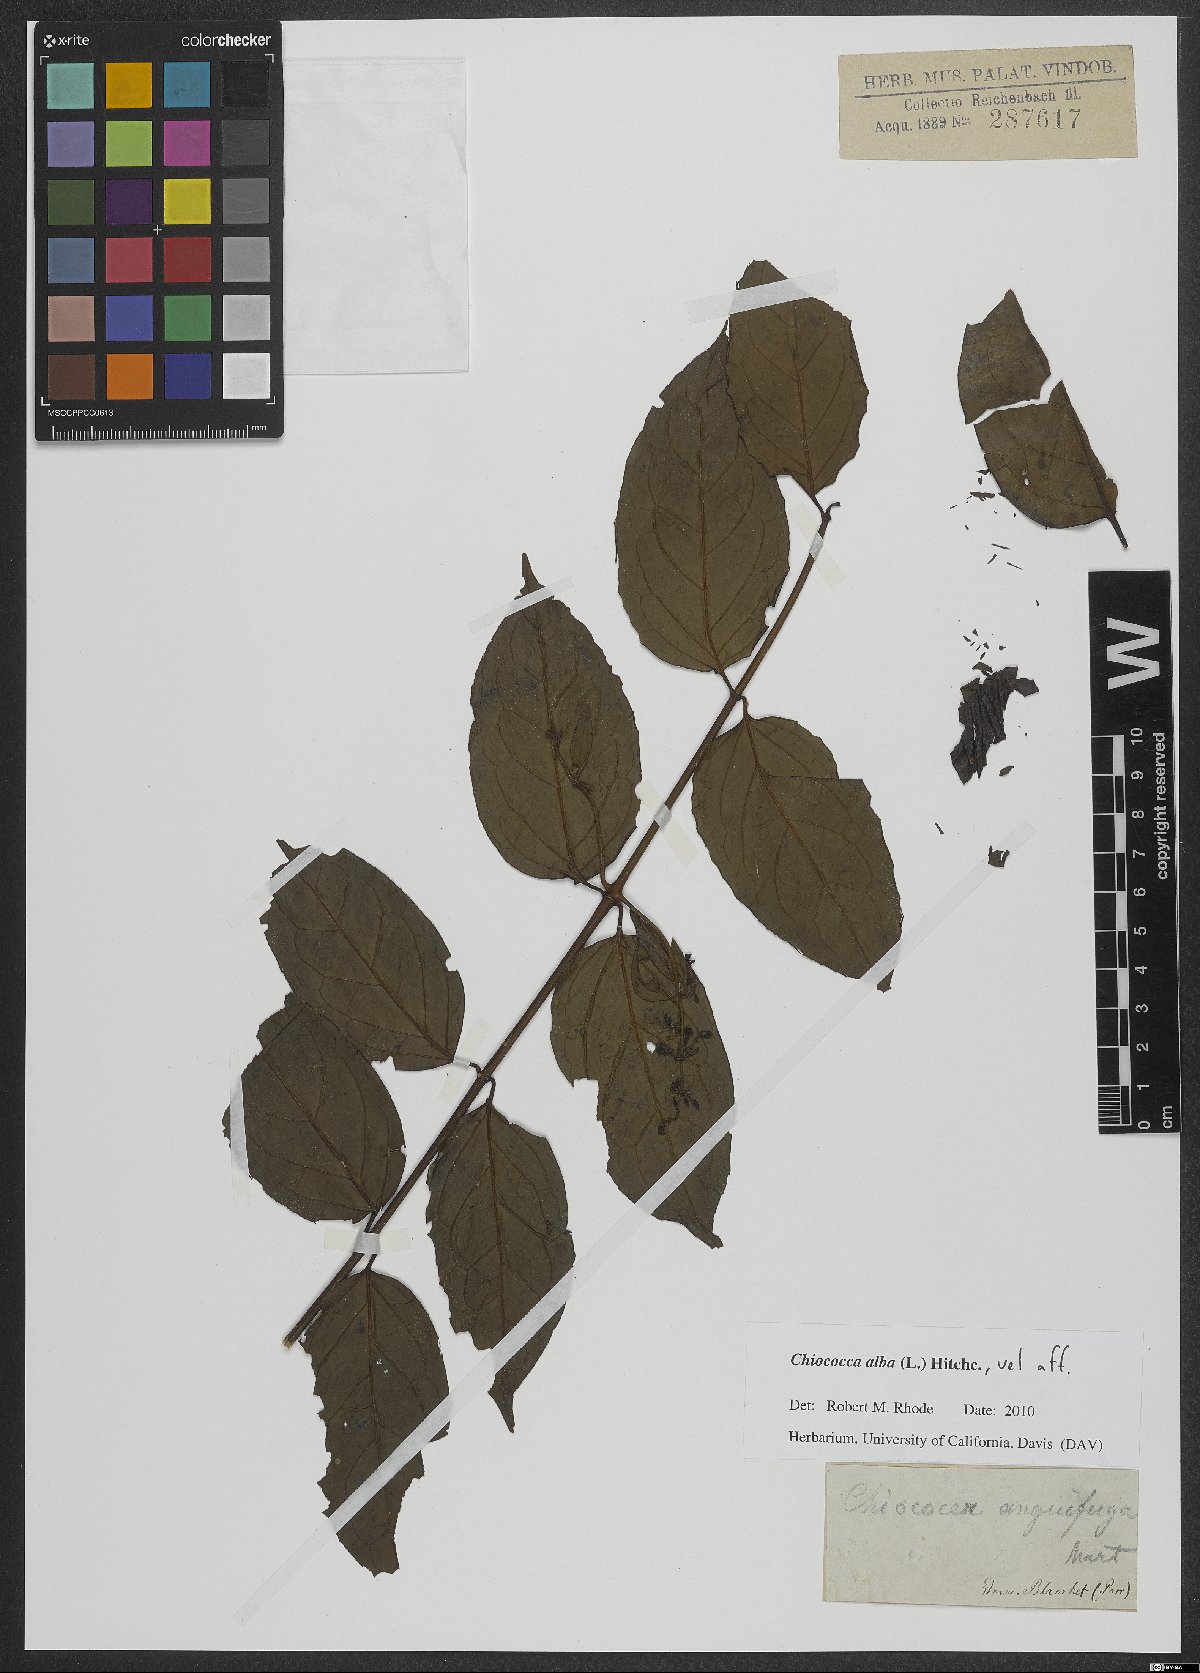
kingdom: Plantae
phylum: Tracheophyta
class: Magnoliopsida
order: Gentianales
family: Rubiaceae
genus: Chiococca
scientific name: Chiococca alba
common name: Snowberry
